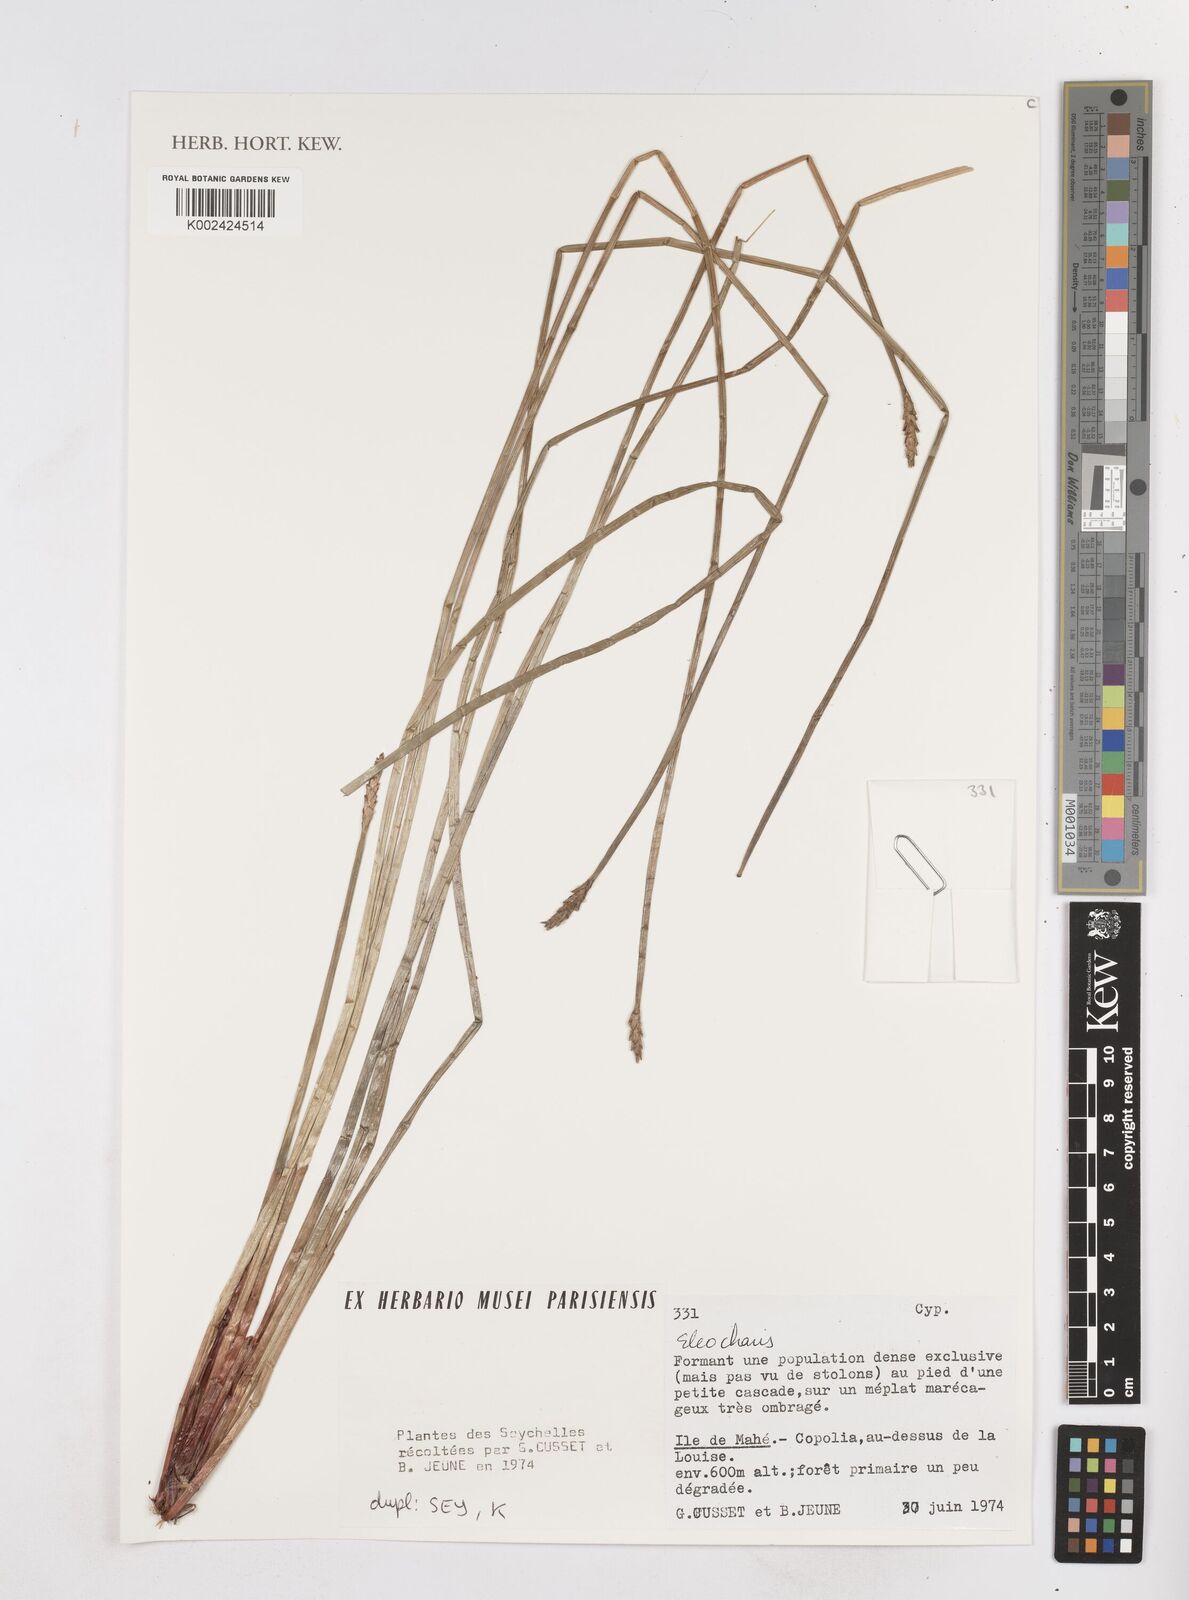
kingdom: Plantae
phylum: Tracheophyta
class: Liliopsida
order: Poales
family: Cyperaceae
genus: Eleocharis
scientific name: Eleocharis
